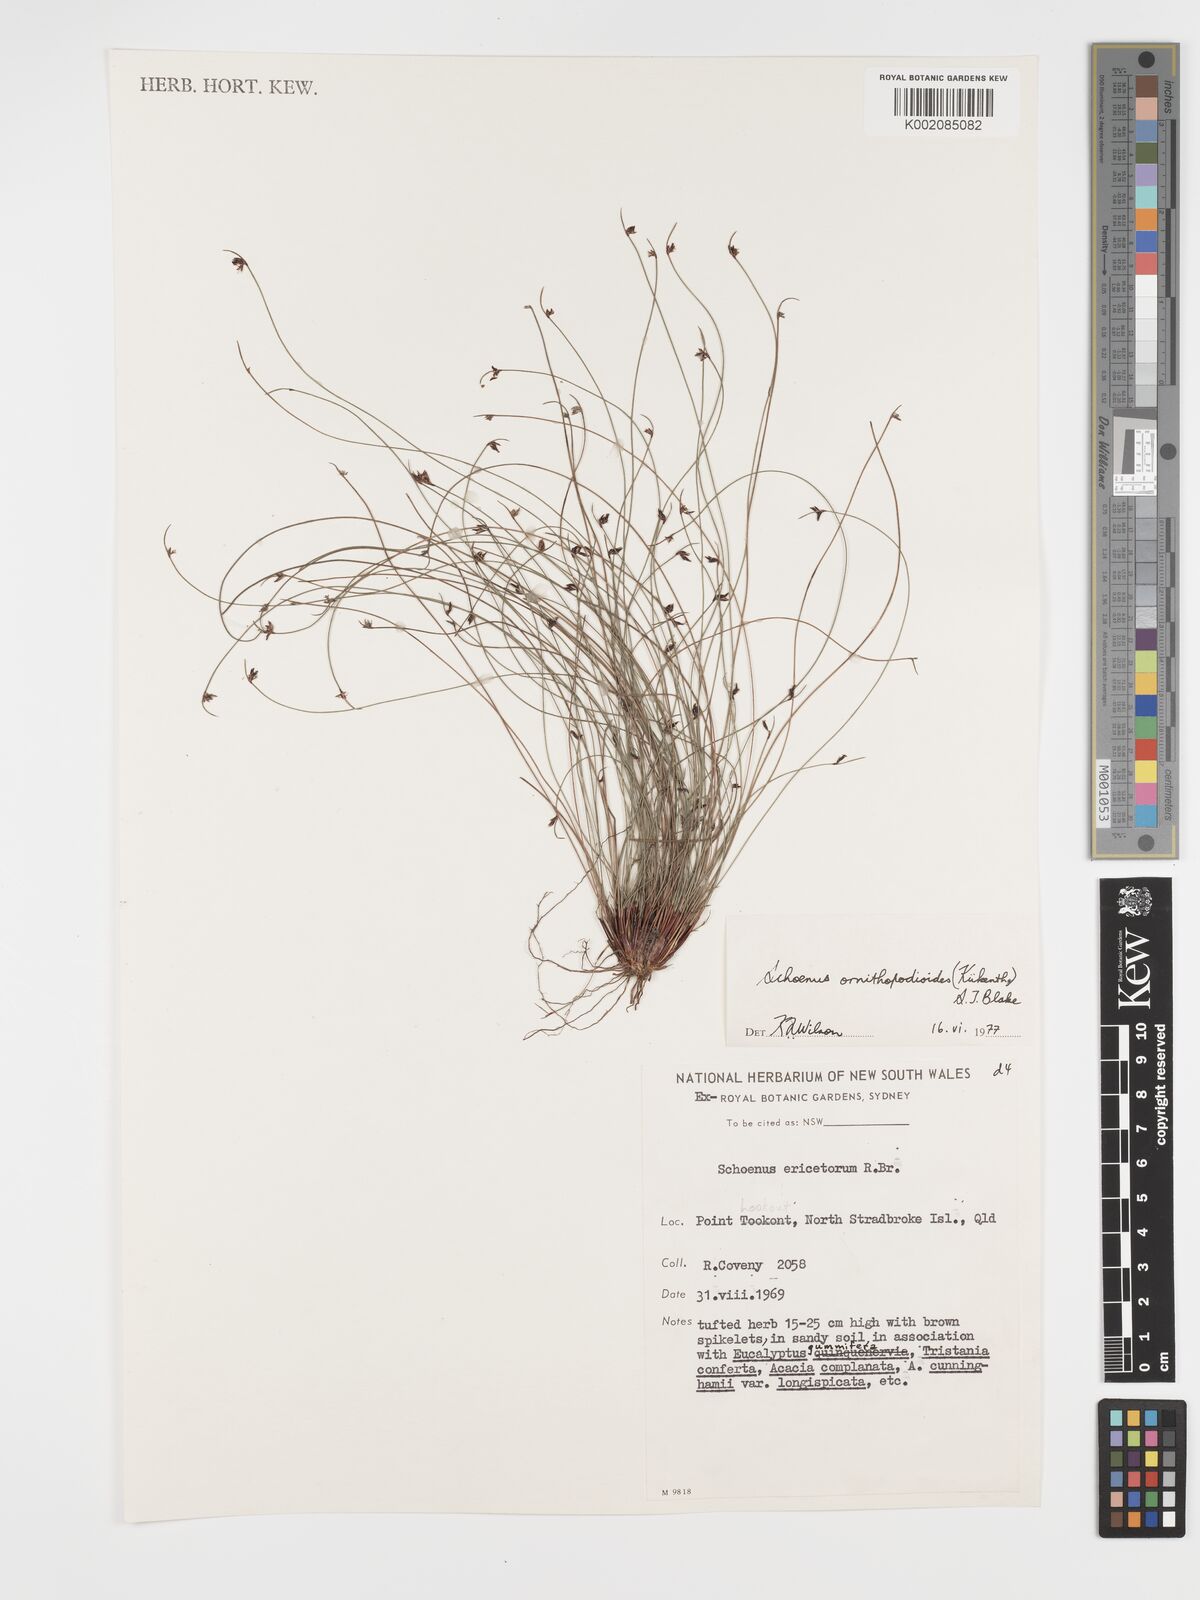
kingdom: Plantae
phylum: Tracheophyta
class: Liliopsida
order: Poales
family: Cyperaceae
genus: Schoenus
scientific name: Schoenus ornithopodioides
